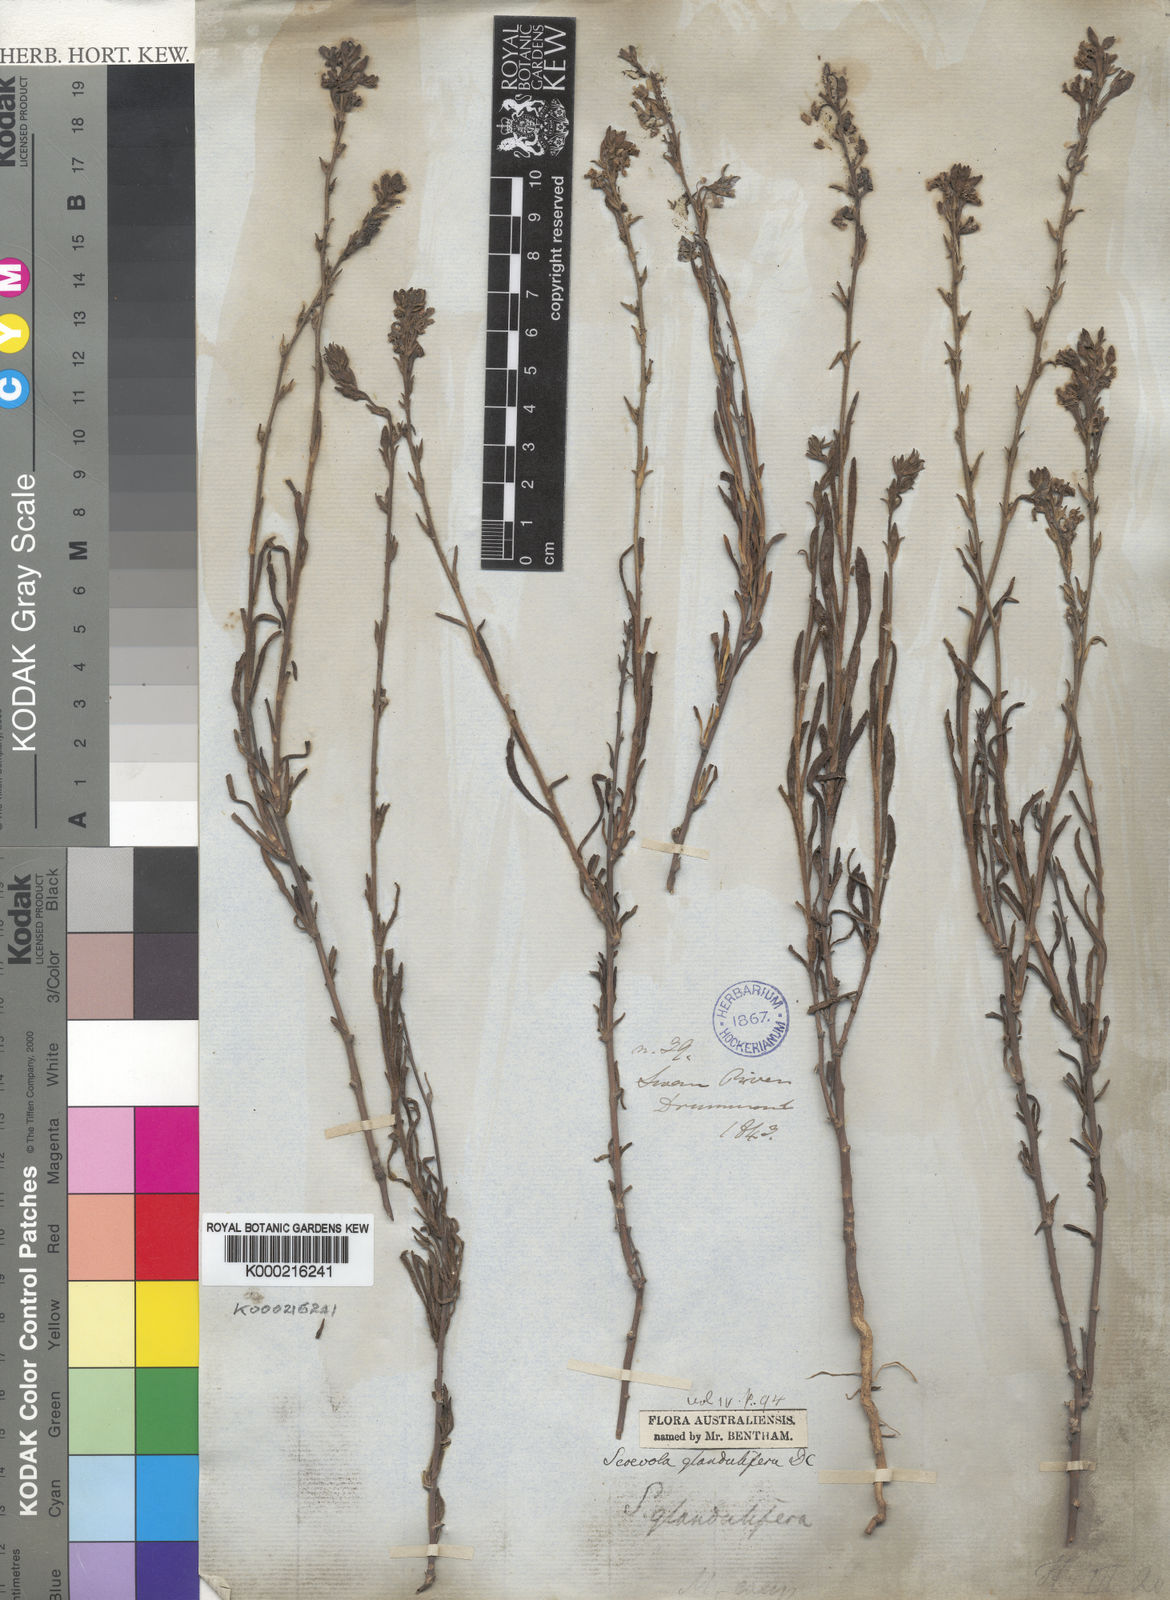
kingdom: Plantae
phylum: Tracheophyta
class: Magnoliopsida
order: Asterales
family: Goodeniaceae
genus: Scaevola
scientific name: Scaevola glandulifera
